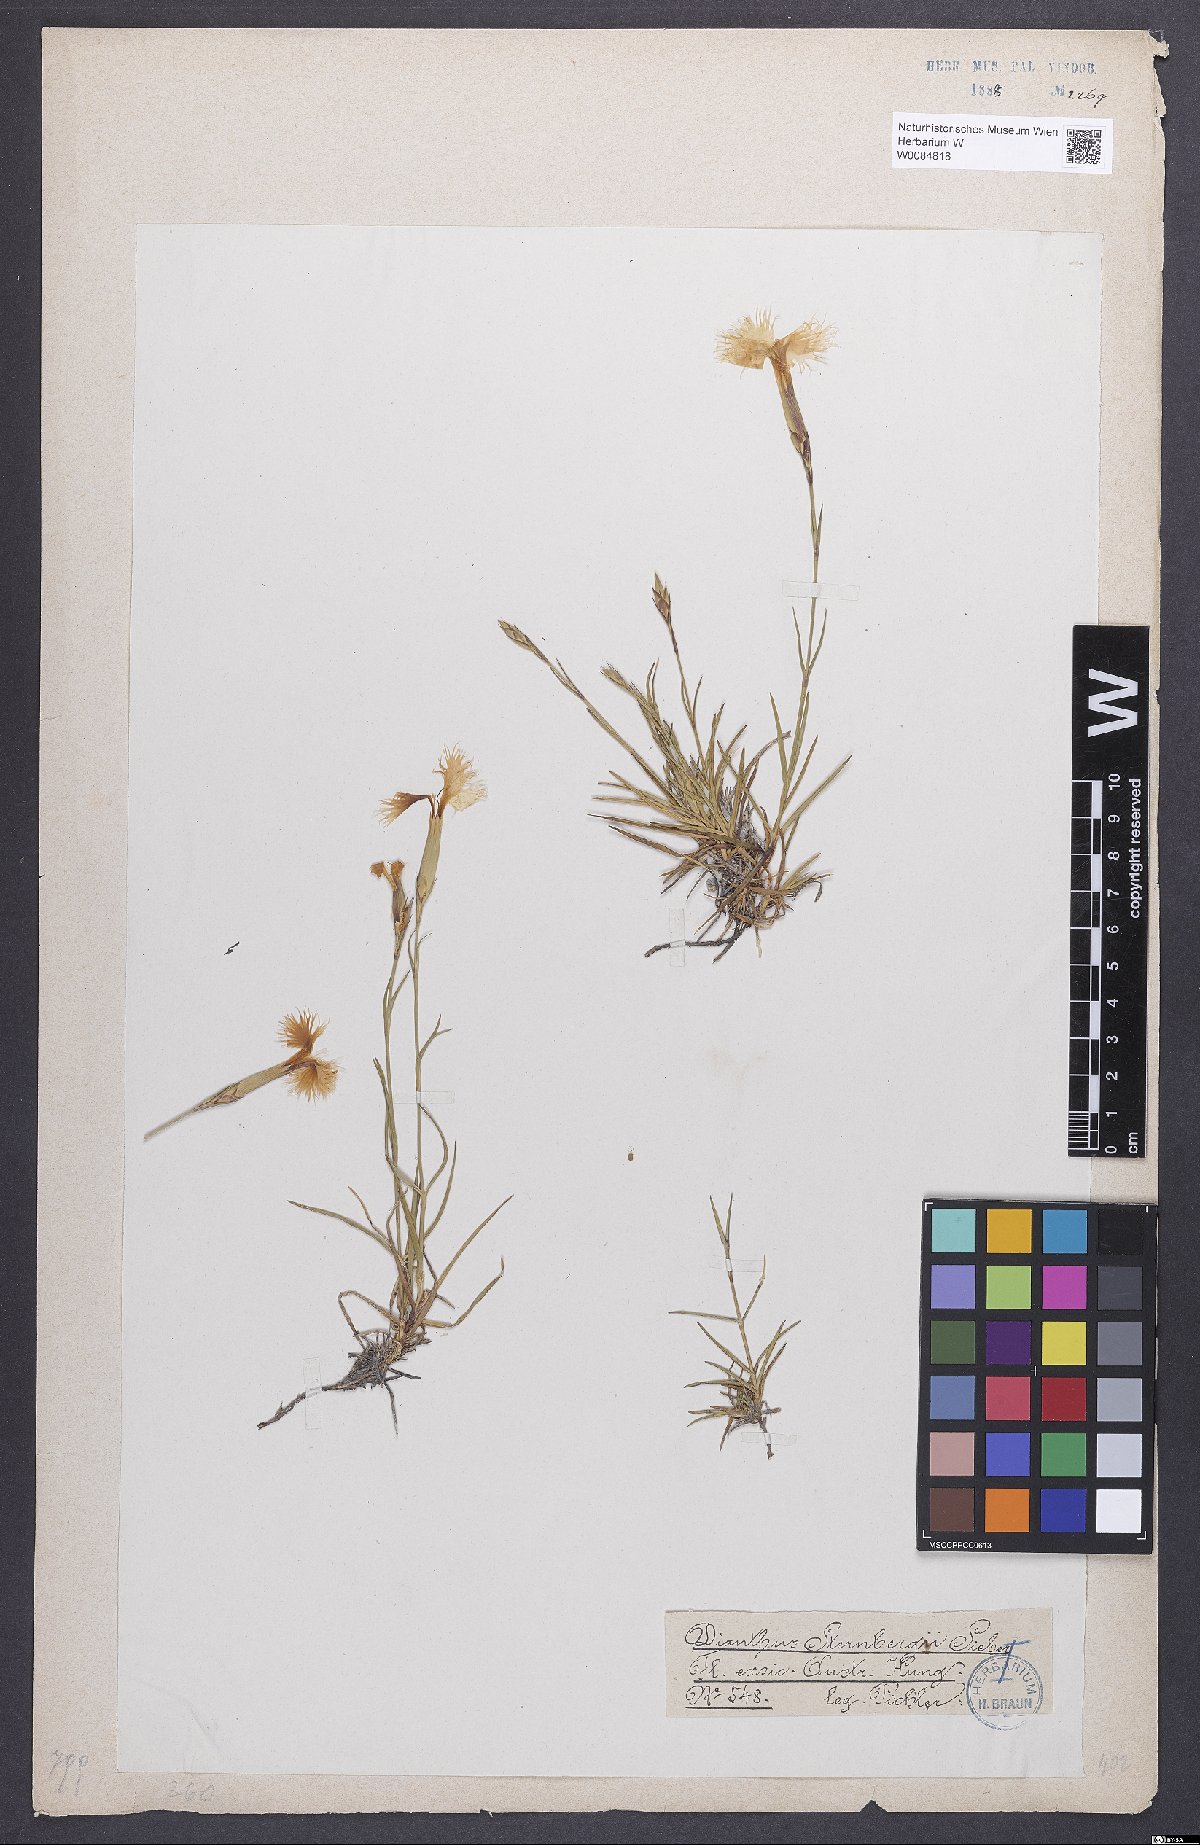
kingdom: Plantae
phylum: Tracheophyta
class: Magnoliopsida
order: Caryophyllales
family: Caryophyllaceae
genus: Dianthus
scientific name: Dianthus monspessulanus
